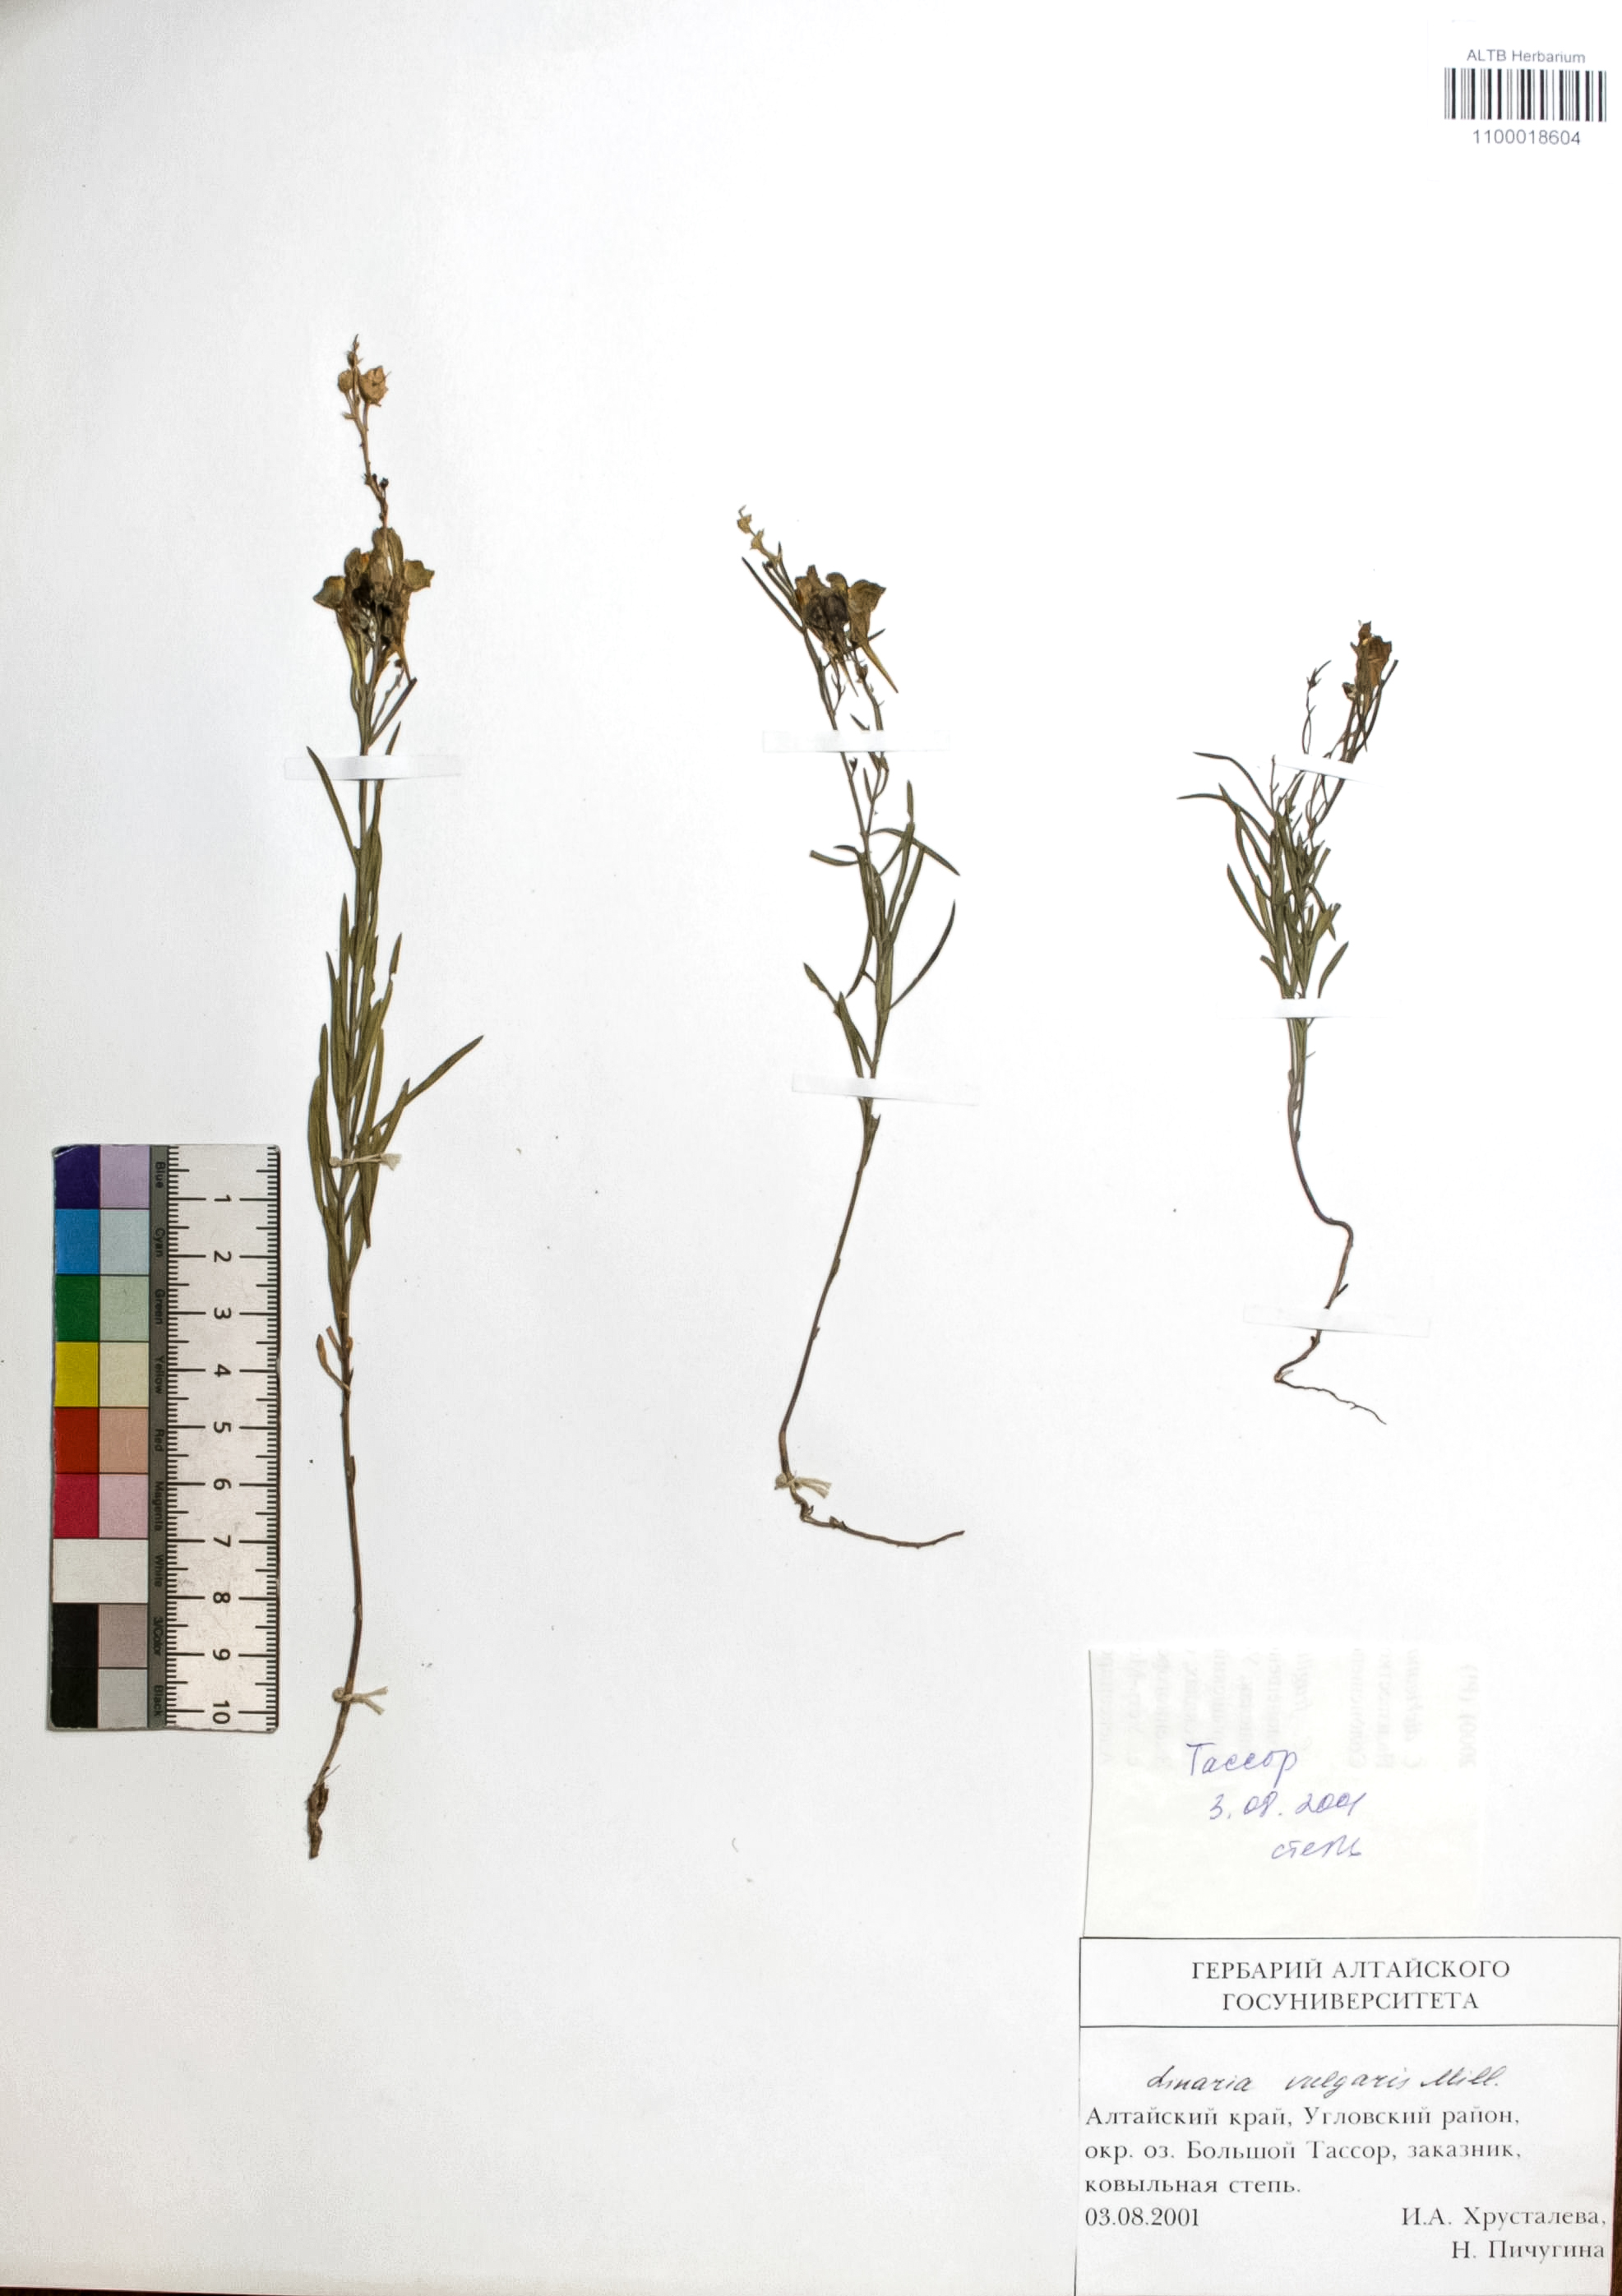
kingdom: Plantae
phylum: Tracheophyta
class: Magnoliopsida
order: Lamiales
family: Plantaginaceae
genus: Linaria
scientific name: Linaria vulgaris
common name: Butter and eggs
